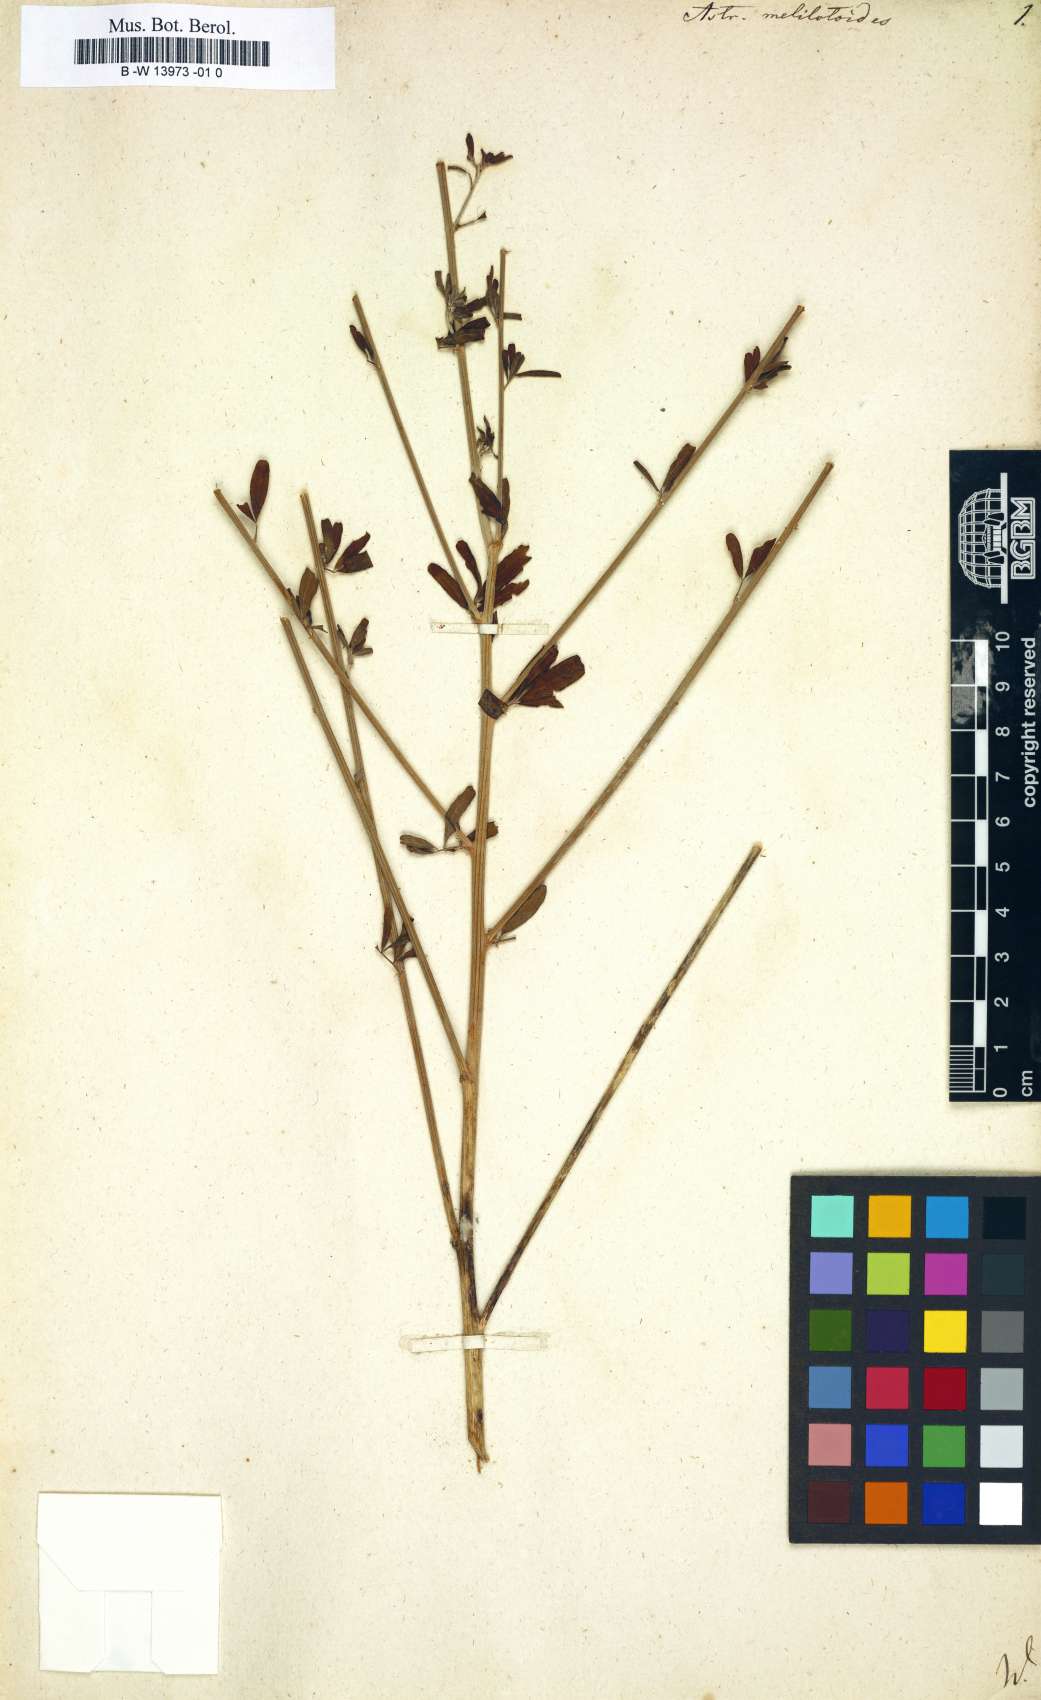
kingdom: Plantae
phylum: Tracheophyta
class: Magnoliopsida
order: Fabales
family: Fabaceae
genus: Astragalus
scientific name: Astragalus melilotoides
